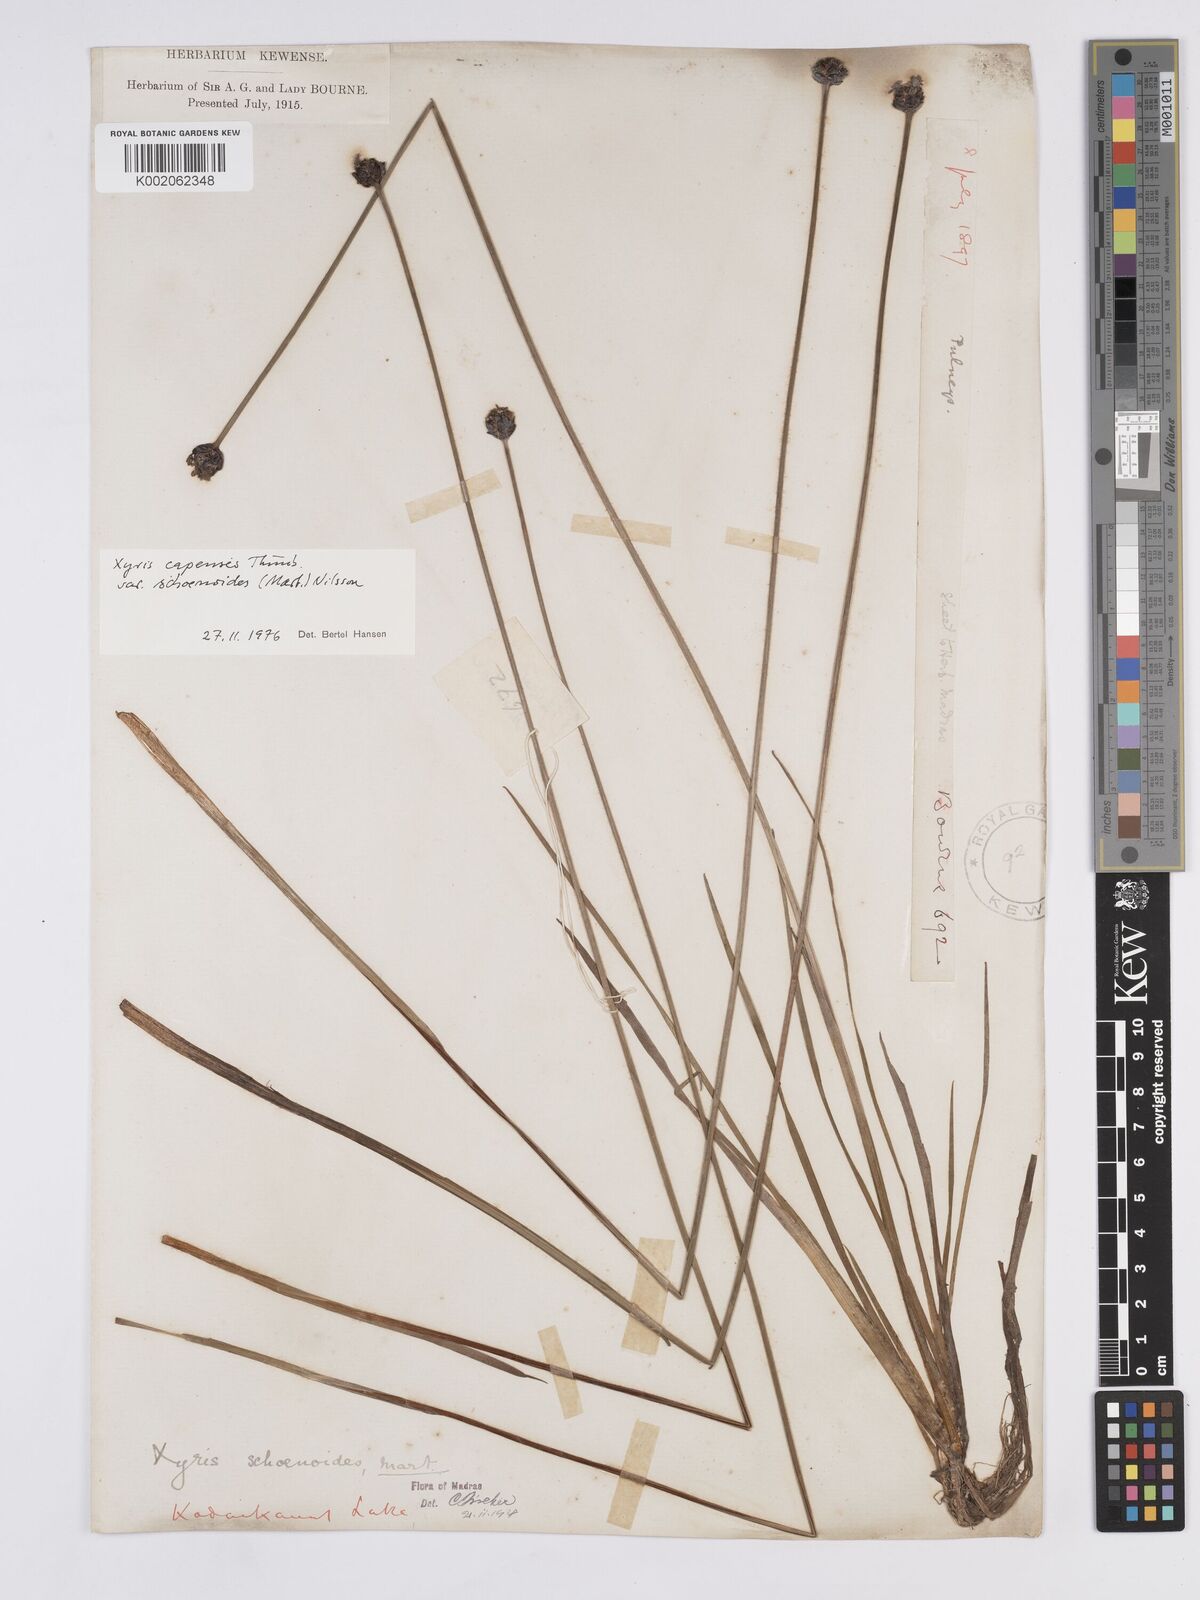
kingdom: Plantae
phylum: Tracheophyta
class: Liliopsida
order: Poales
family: Xyridaceae
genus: Xyris
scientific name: Xyris capensis
